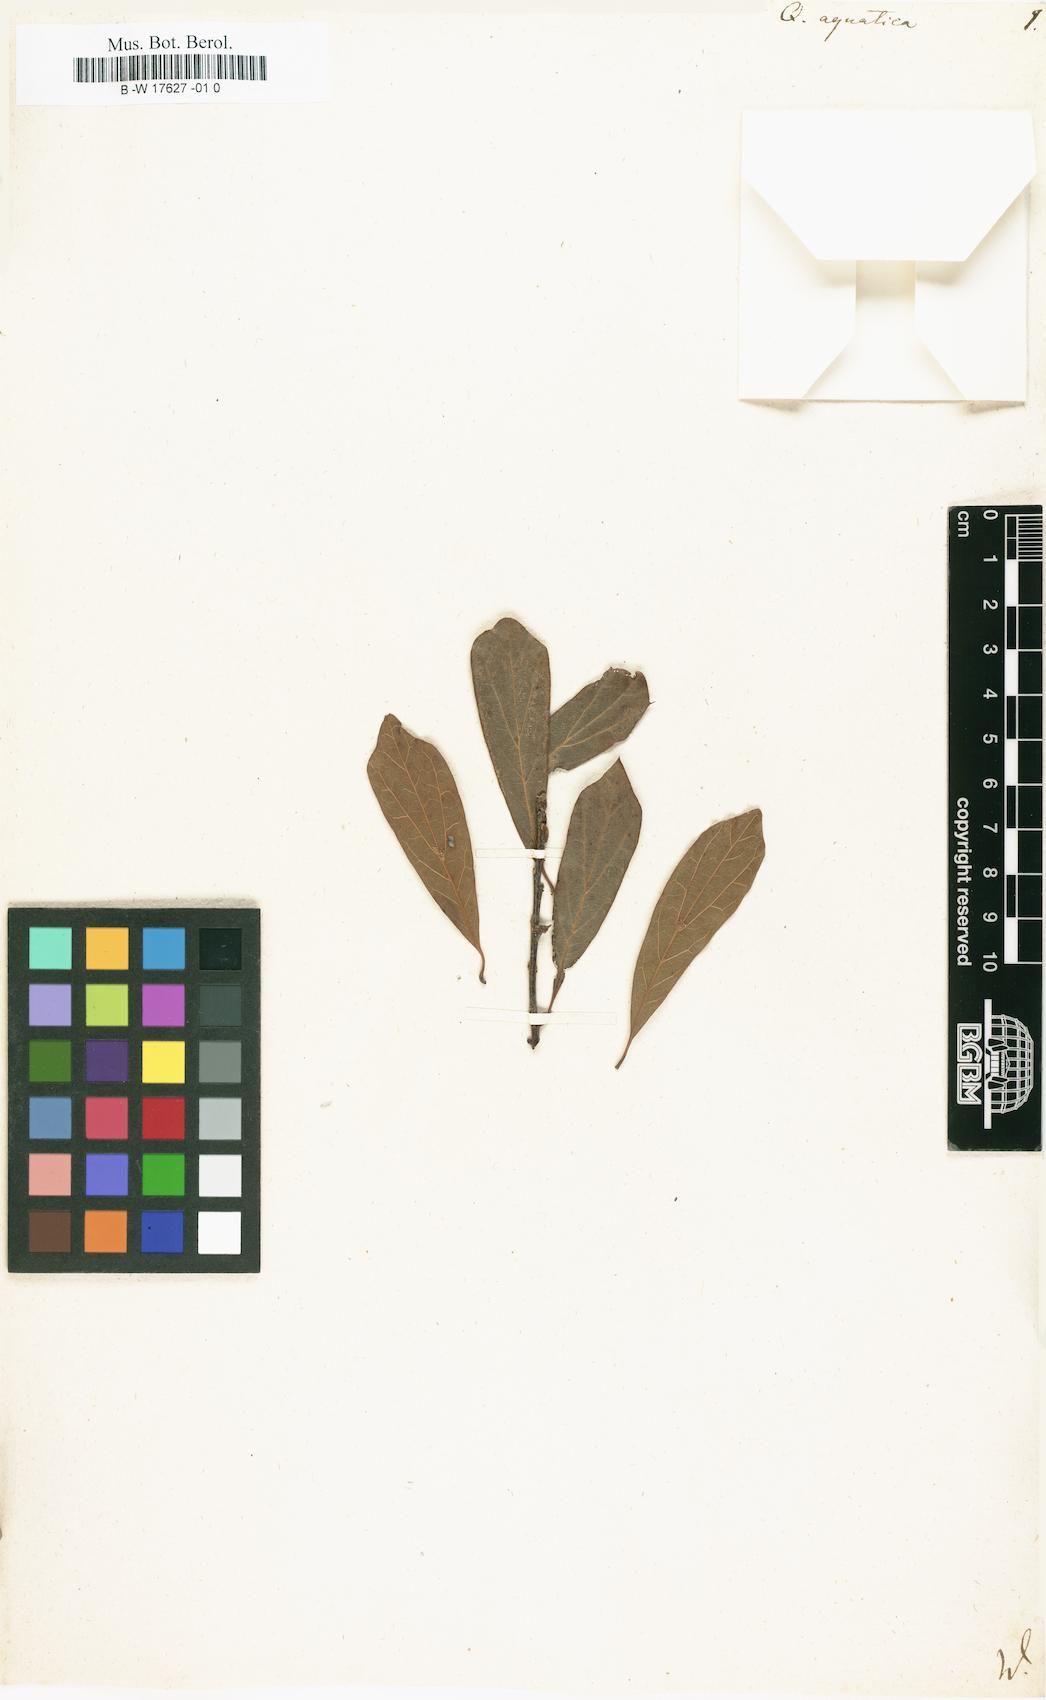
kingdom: Plantae
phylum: Tracheophyta
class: Magnoliopsida
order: Fagales
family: Fagaceae
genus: Quercus
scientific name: Quercus nigra
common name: Water oak
